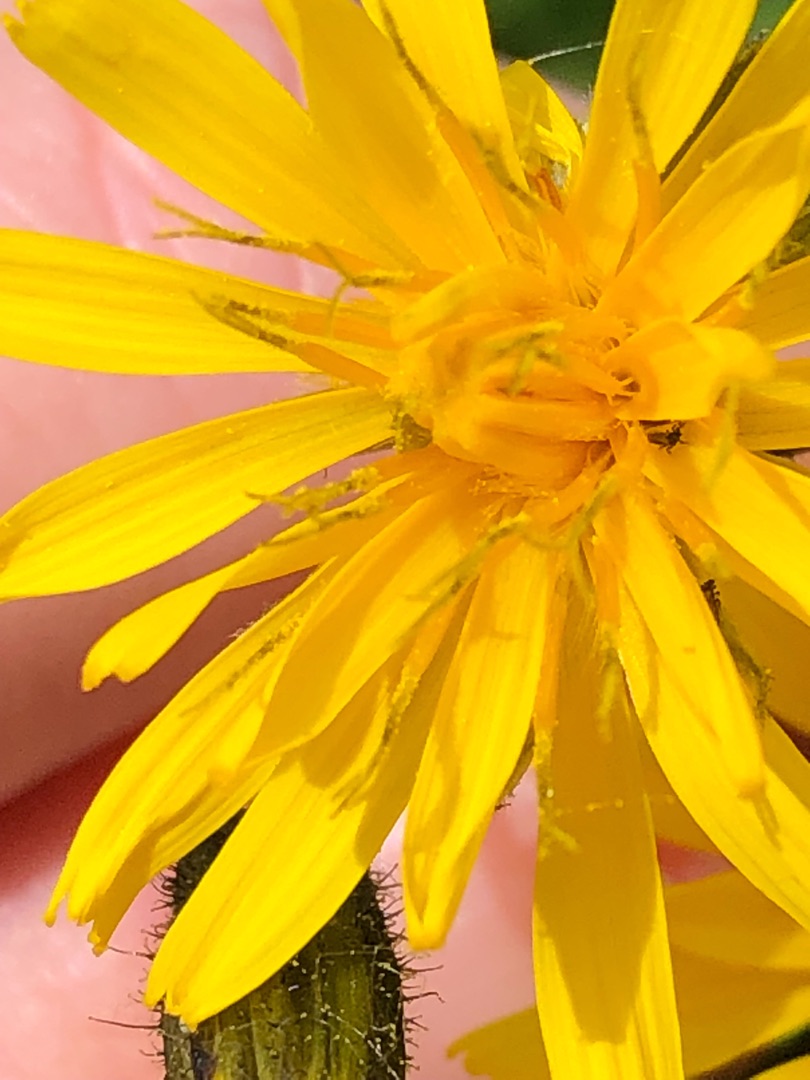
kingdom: Plantae
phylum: Tracheophyta
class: Magnoliopsida
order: Asterales
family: Asteraceae
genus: Crepis
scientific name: Crepis paludosa
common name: Kær-høgeskæg
